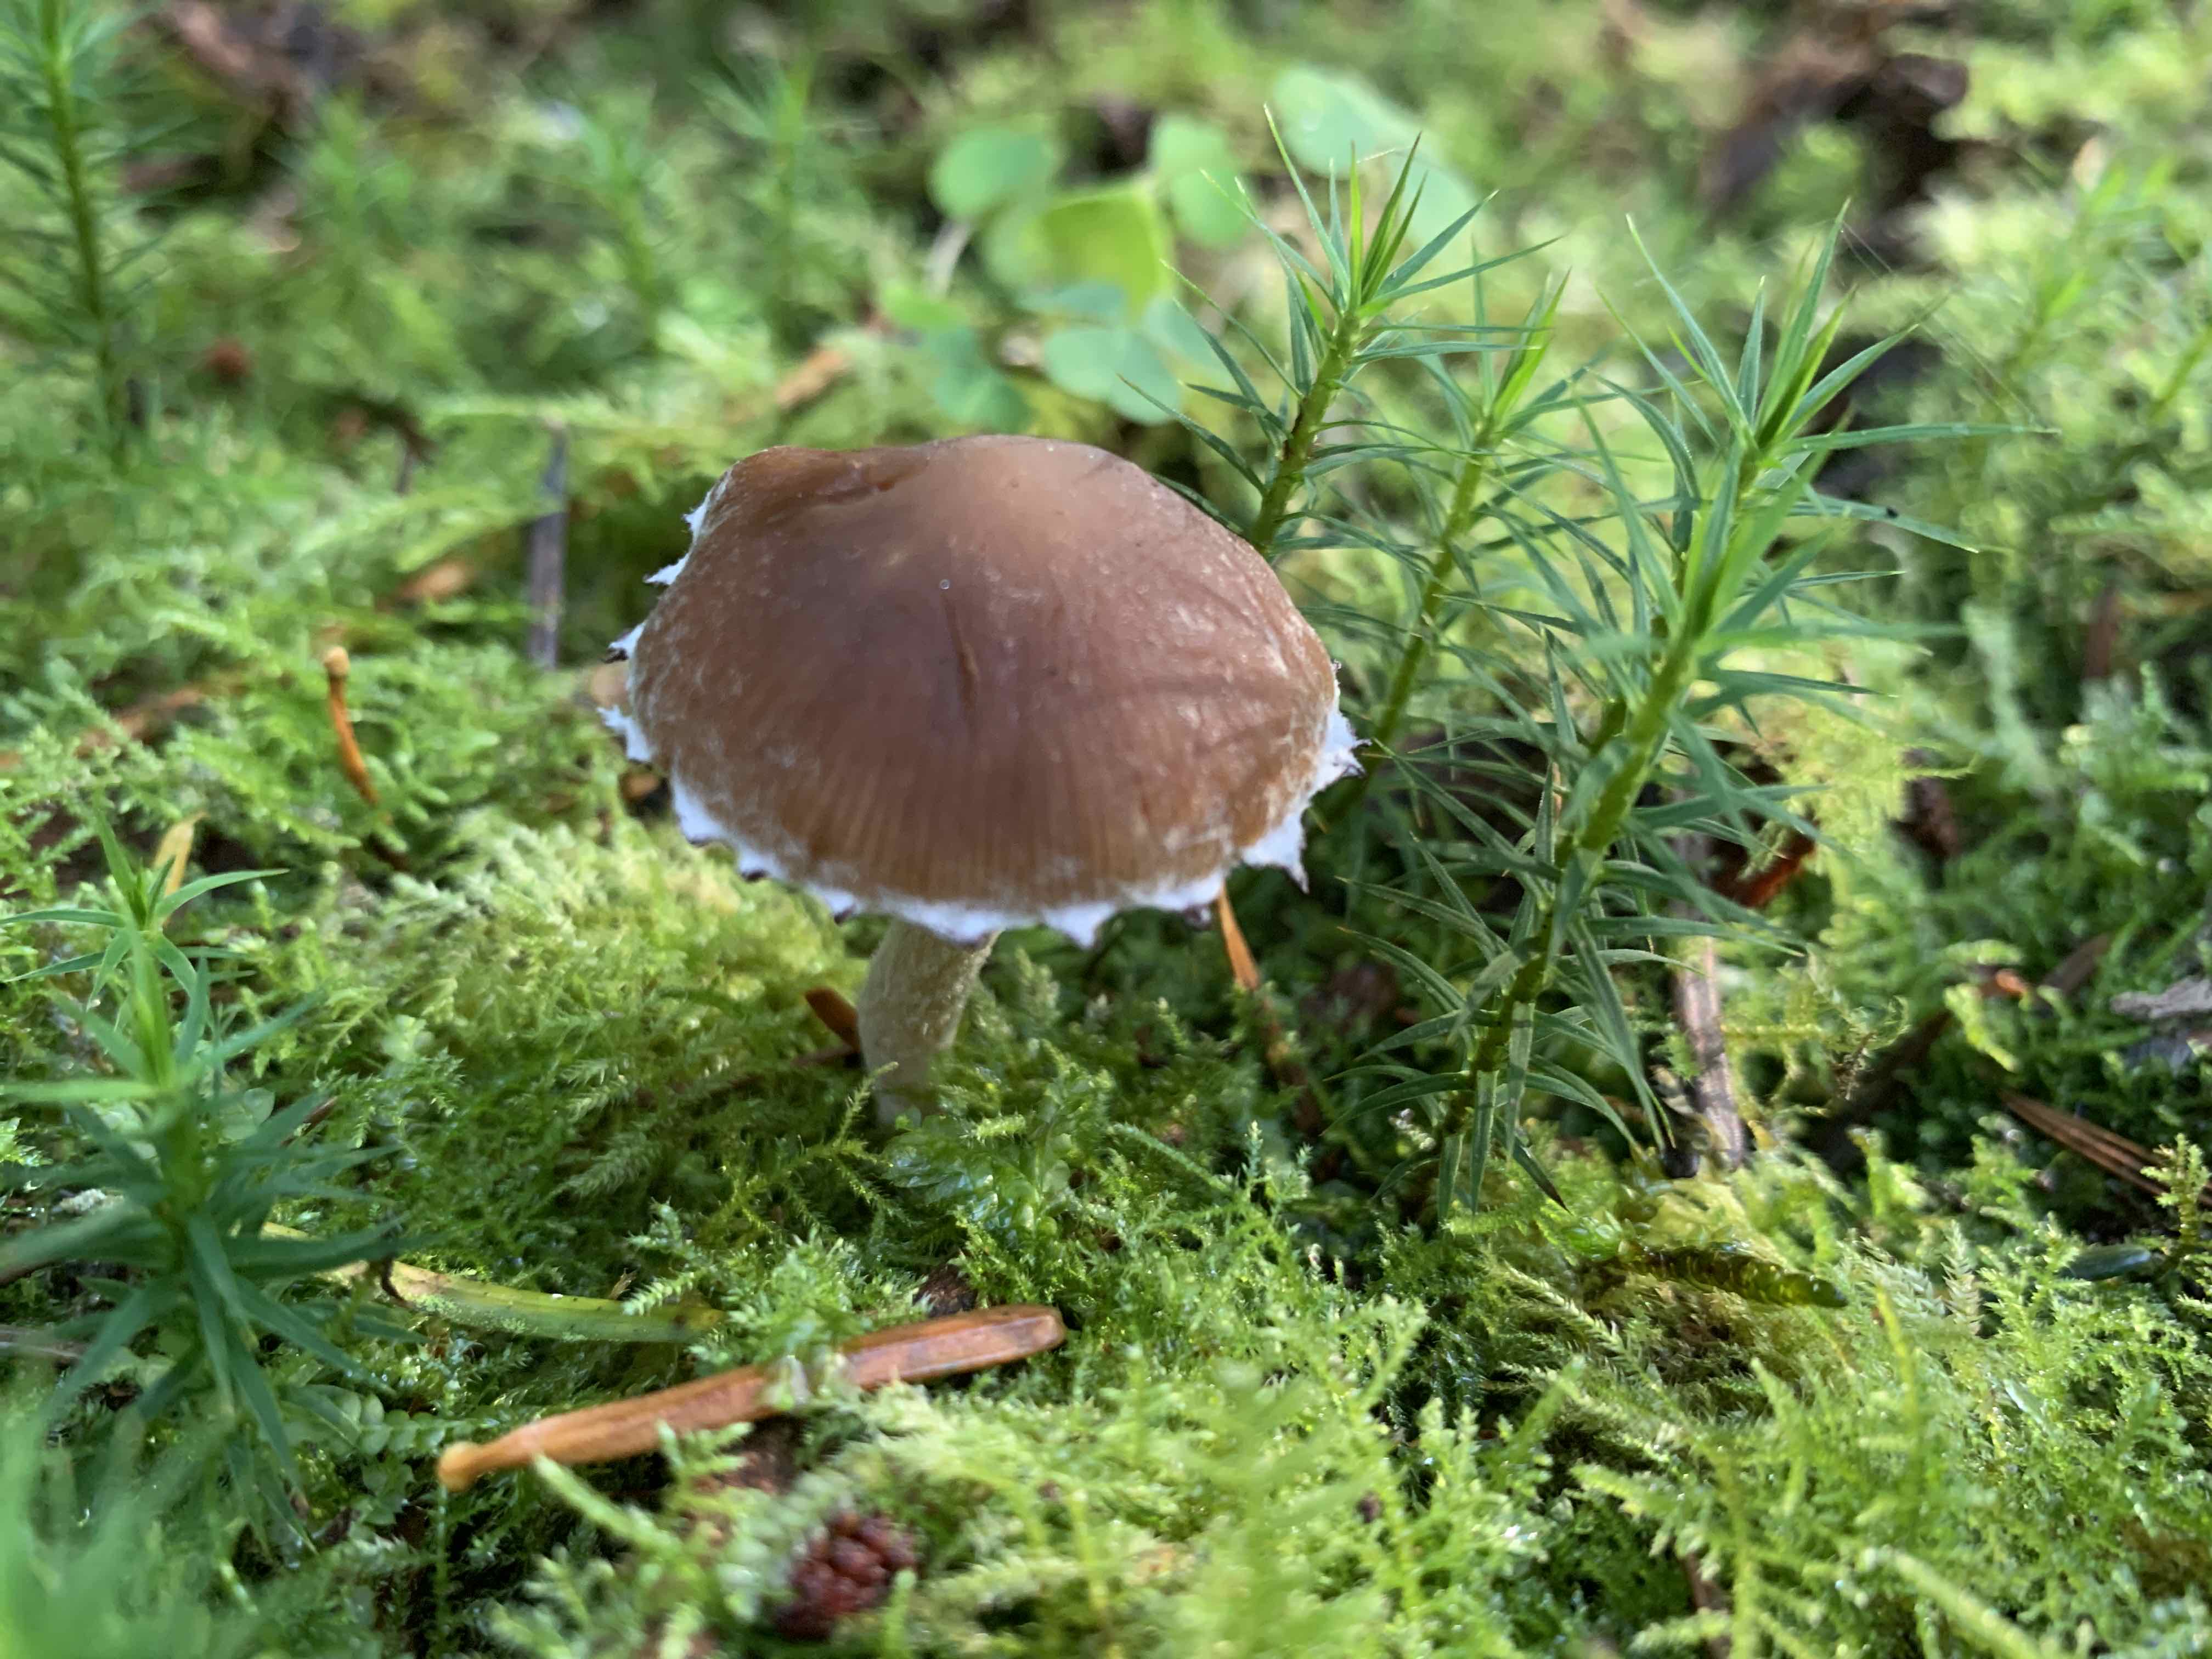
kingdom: Fungi
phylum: Basidiomycota
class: Agaricomycetes
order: Agaricales
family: Psathyrellaceae
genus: Psathyrella
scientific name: Psathyrella flexuosipes
